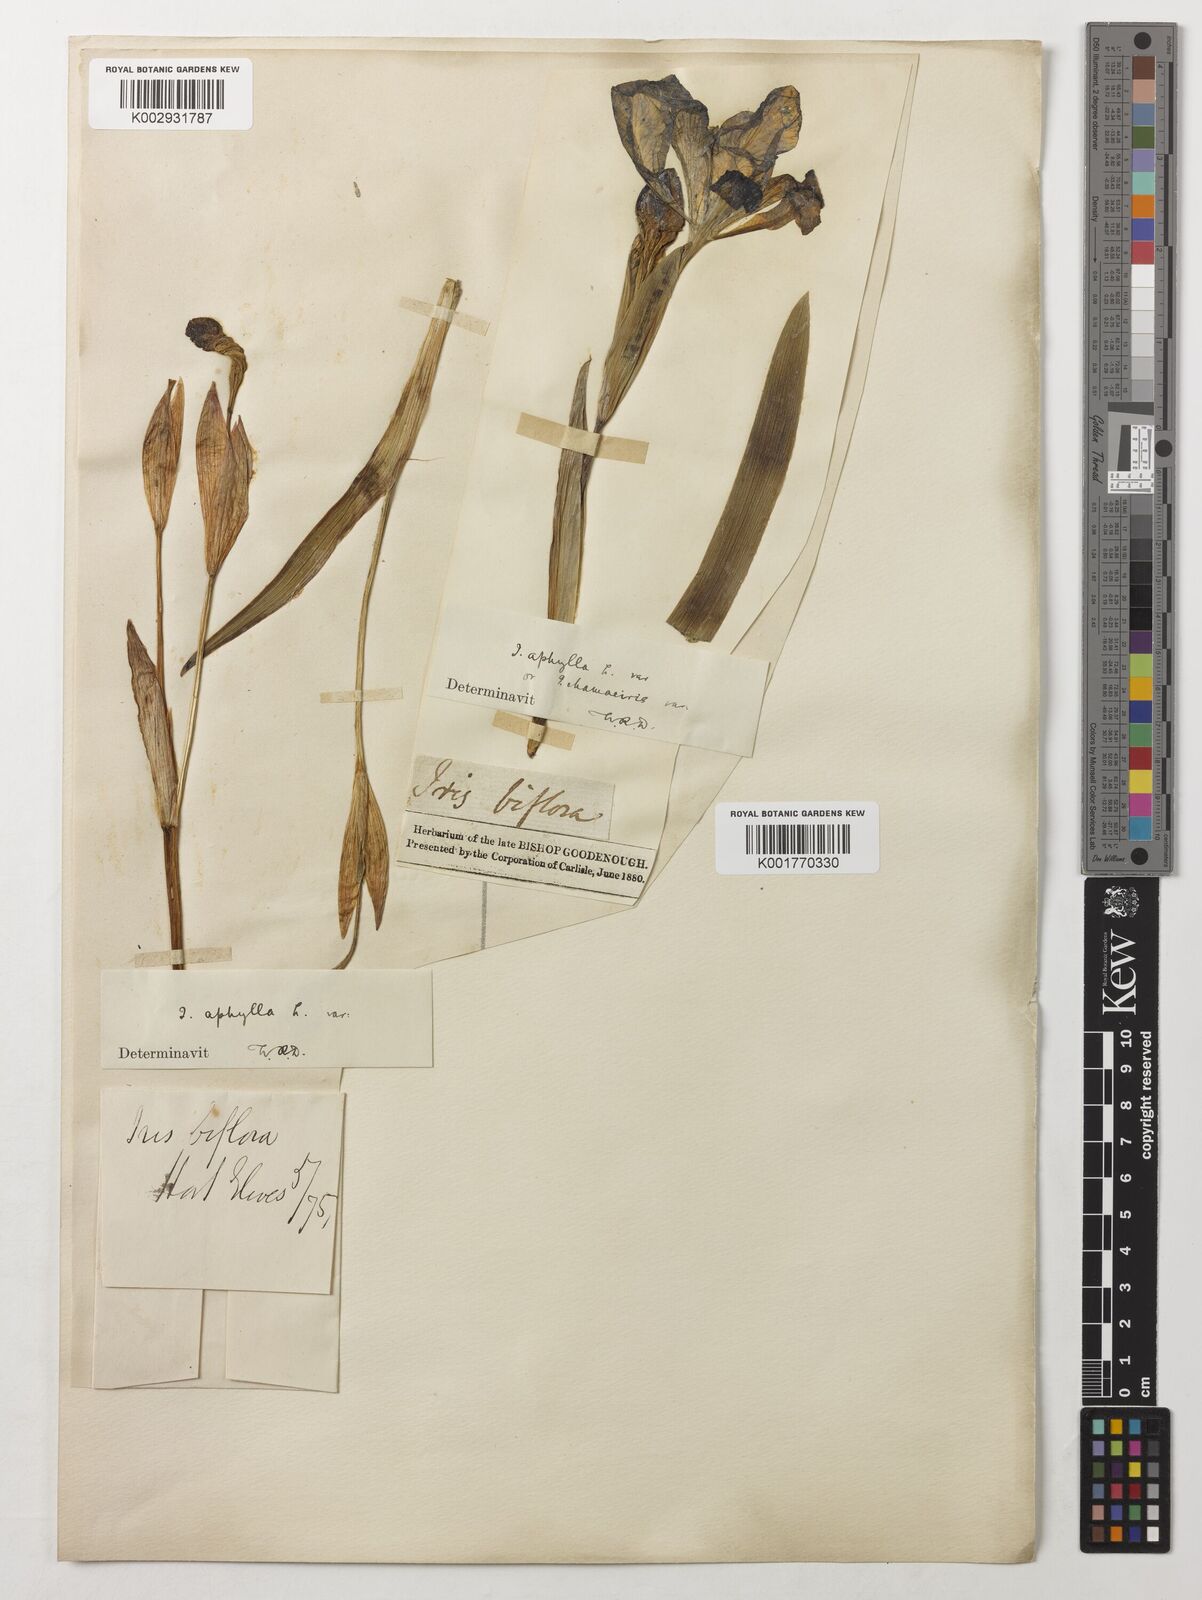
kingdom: Plantae
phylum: Tracheophyta
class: Liliopsida
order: Asparagales
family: Iridaceae
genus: Iris
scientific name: Iris aphylla
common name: Stool iris
